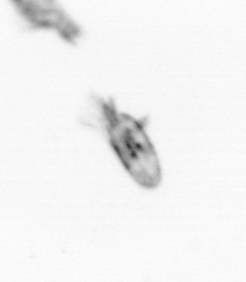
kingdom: Animalia
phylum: Arthropoda
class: Copepoda
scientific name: Copepoda
